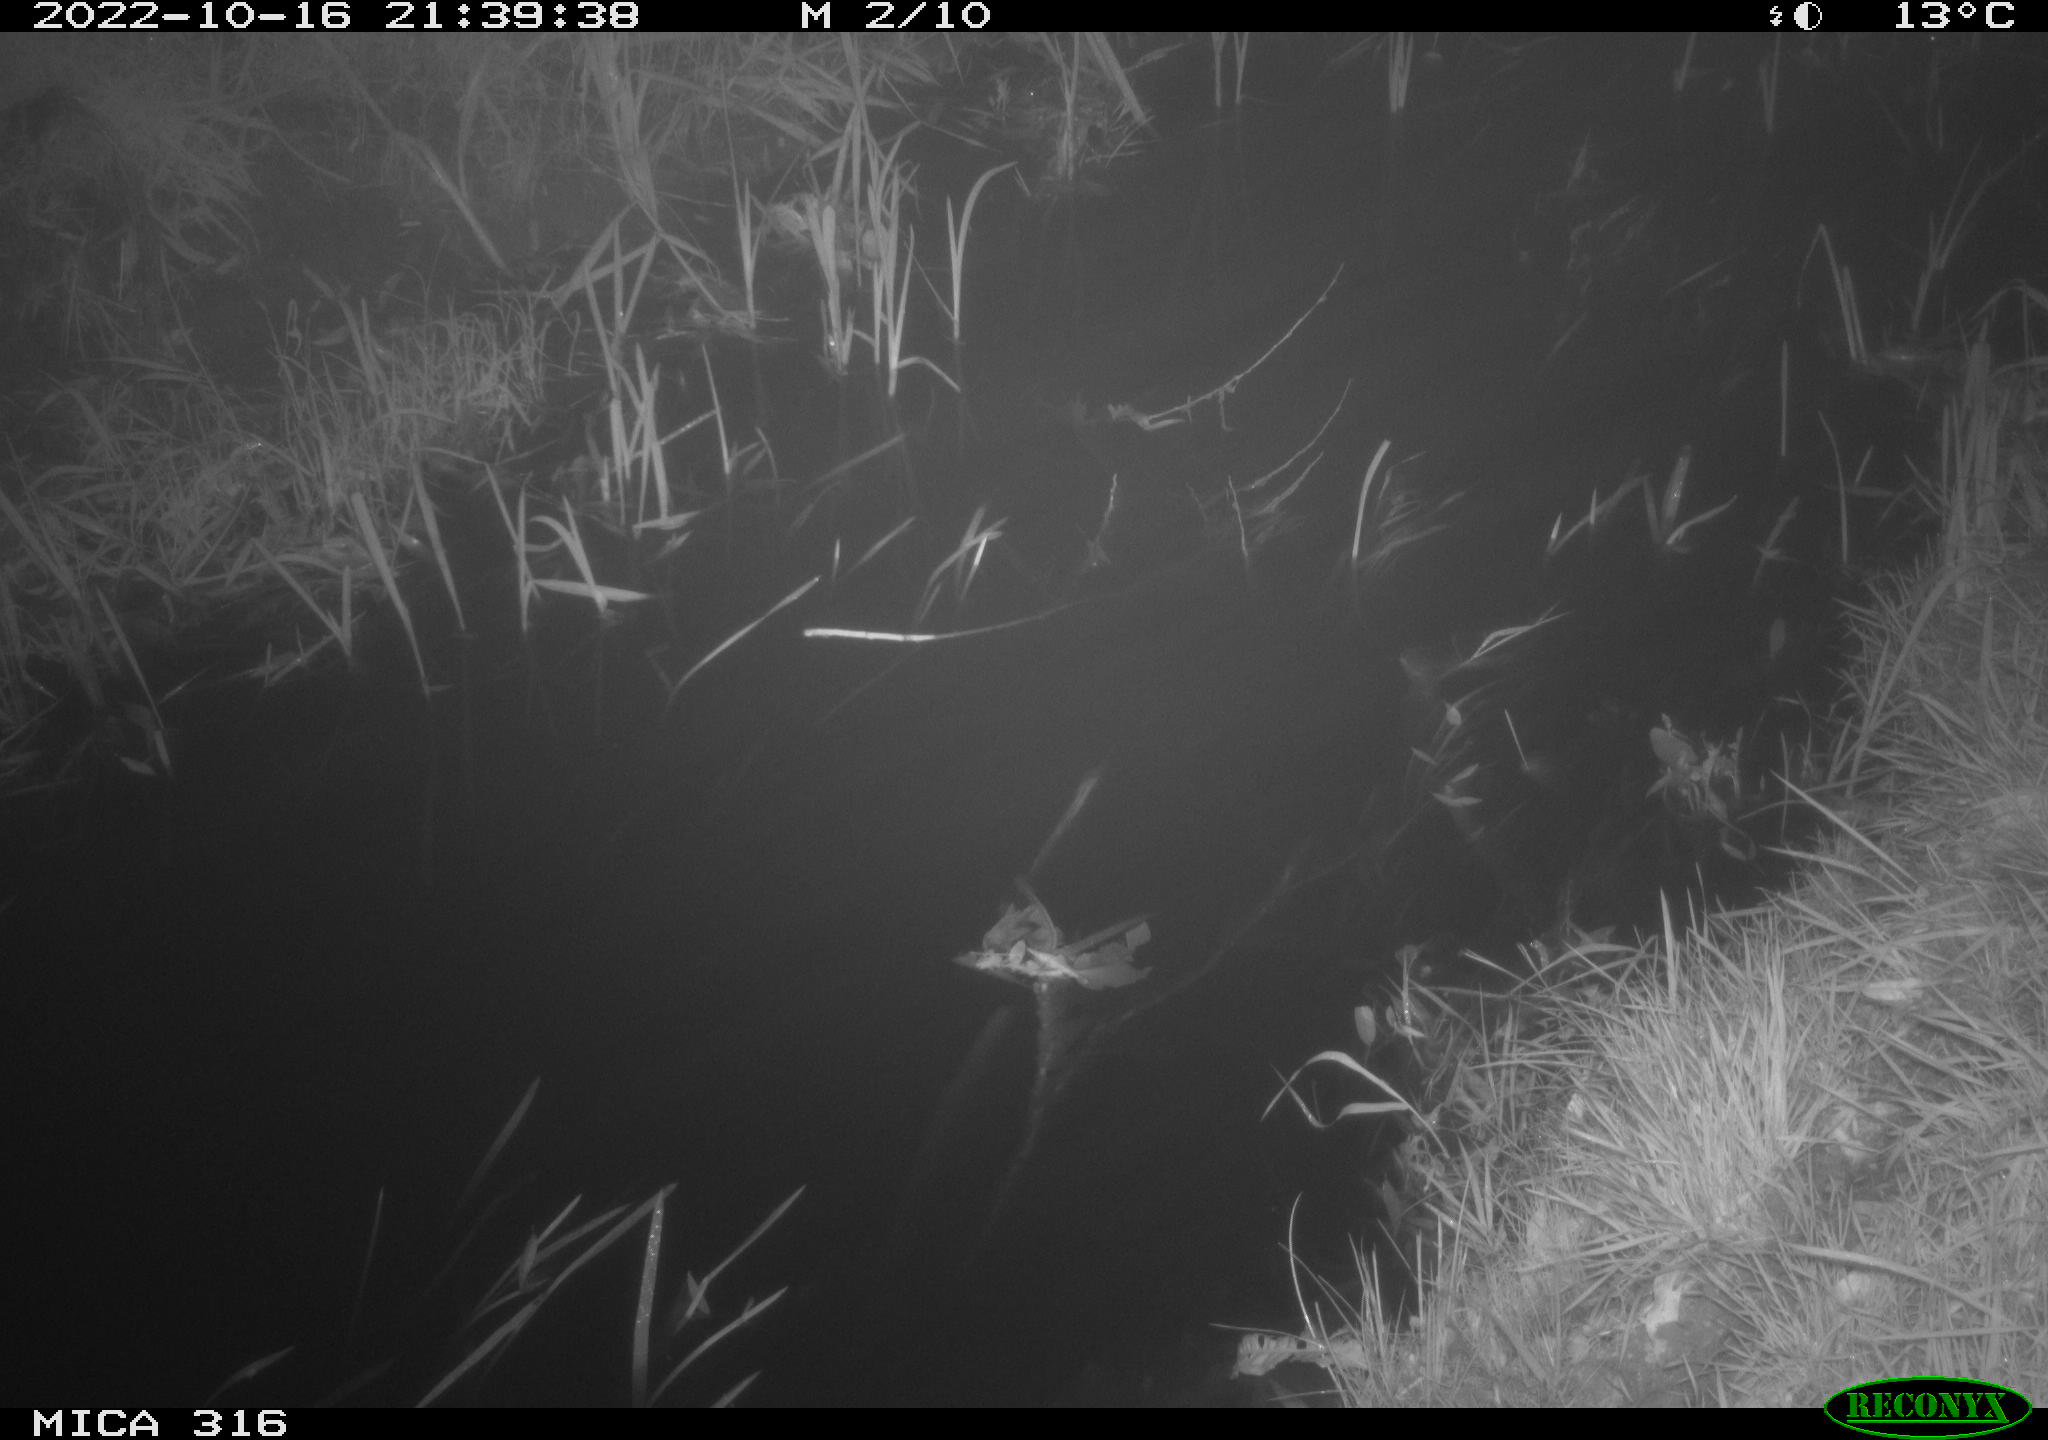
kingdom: Animalia
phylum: Chordata
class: Mammalia
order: Carnivora
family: Canidae
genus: Vulpes
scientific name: Vulpes vulpes
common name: Red fox
